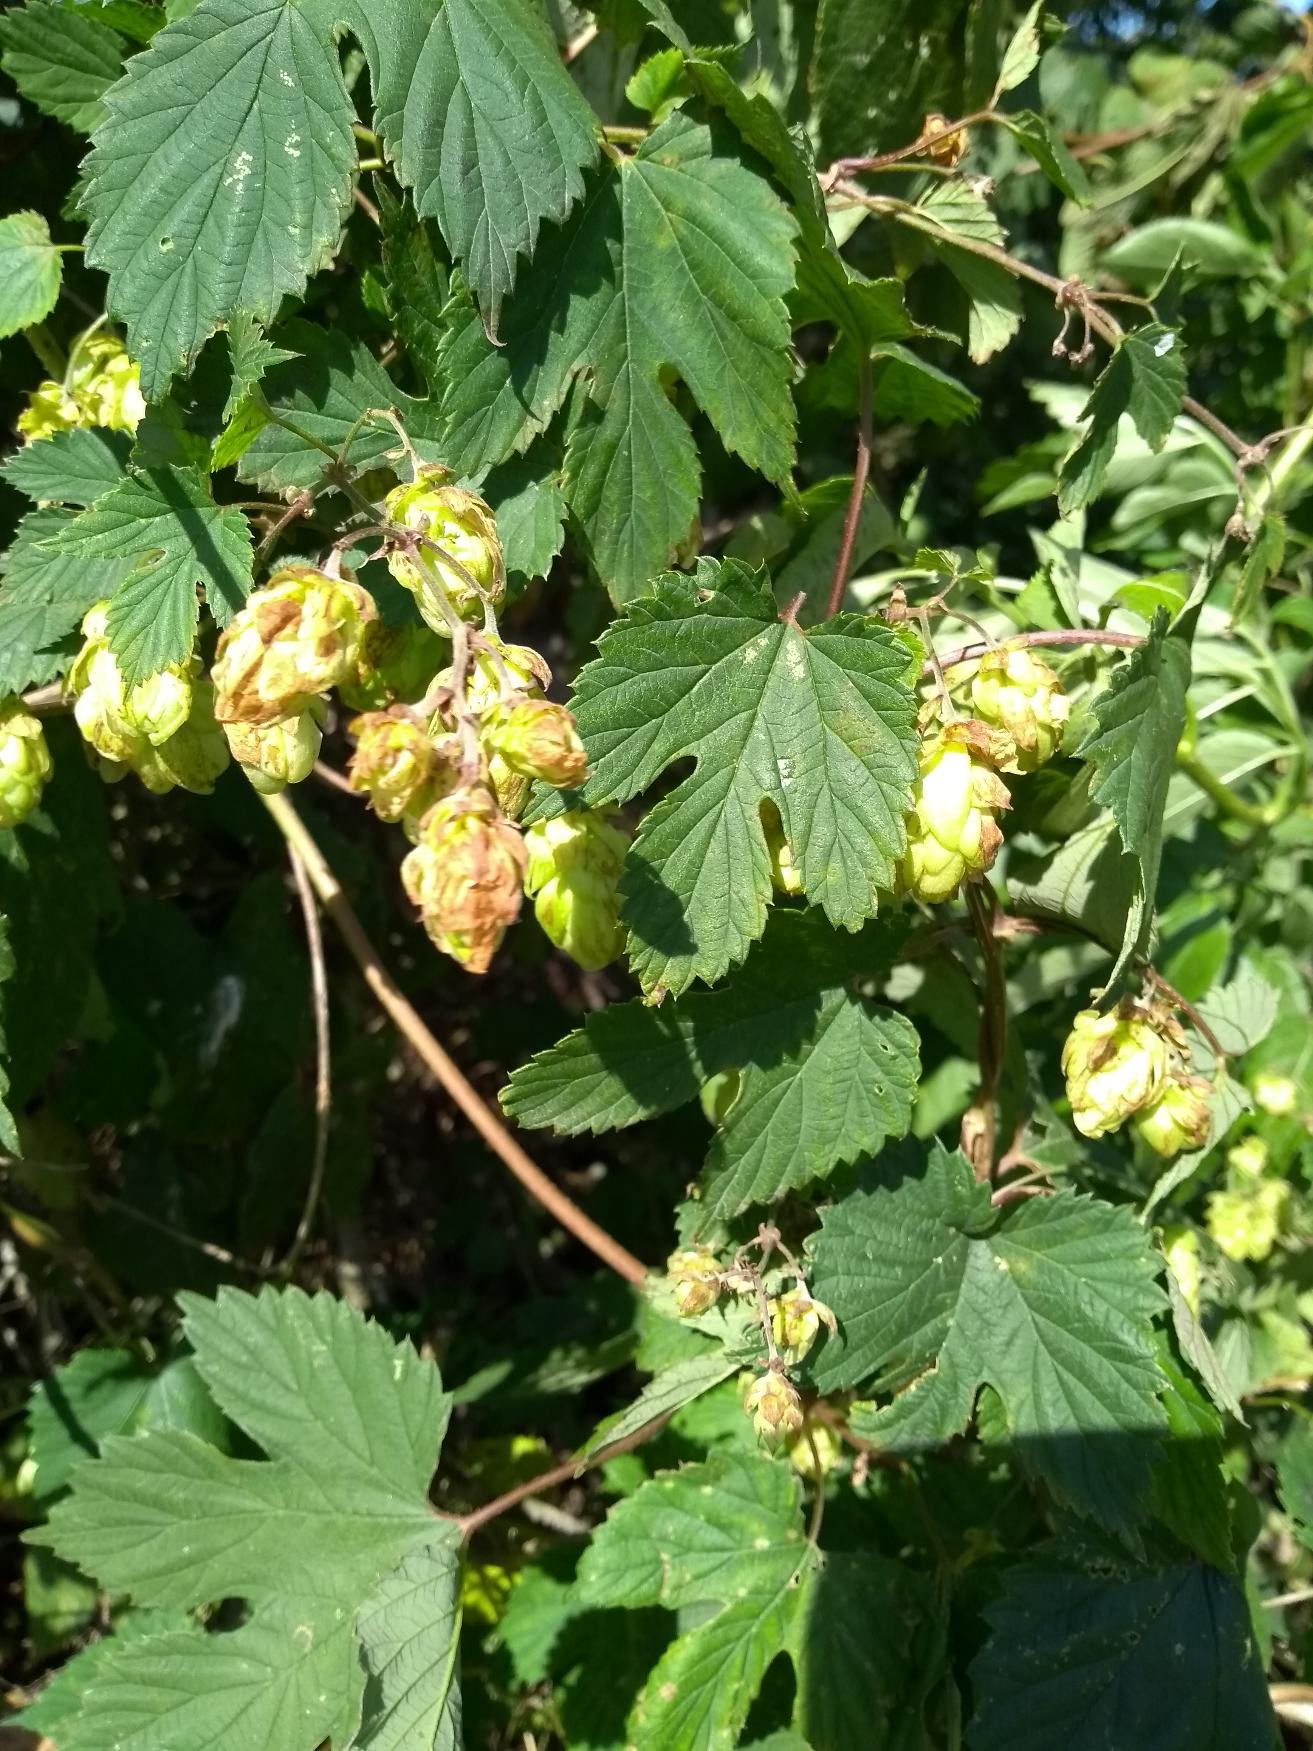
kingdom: Plantae
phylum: Tracheophyta
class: Magnoliopsida
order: Rosales
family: Cannabaceae
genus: Humulus
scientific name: Humulus lupulus
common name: Humle
